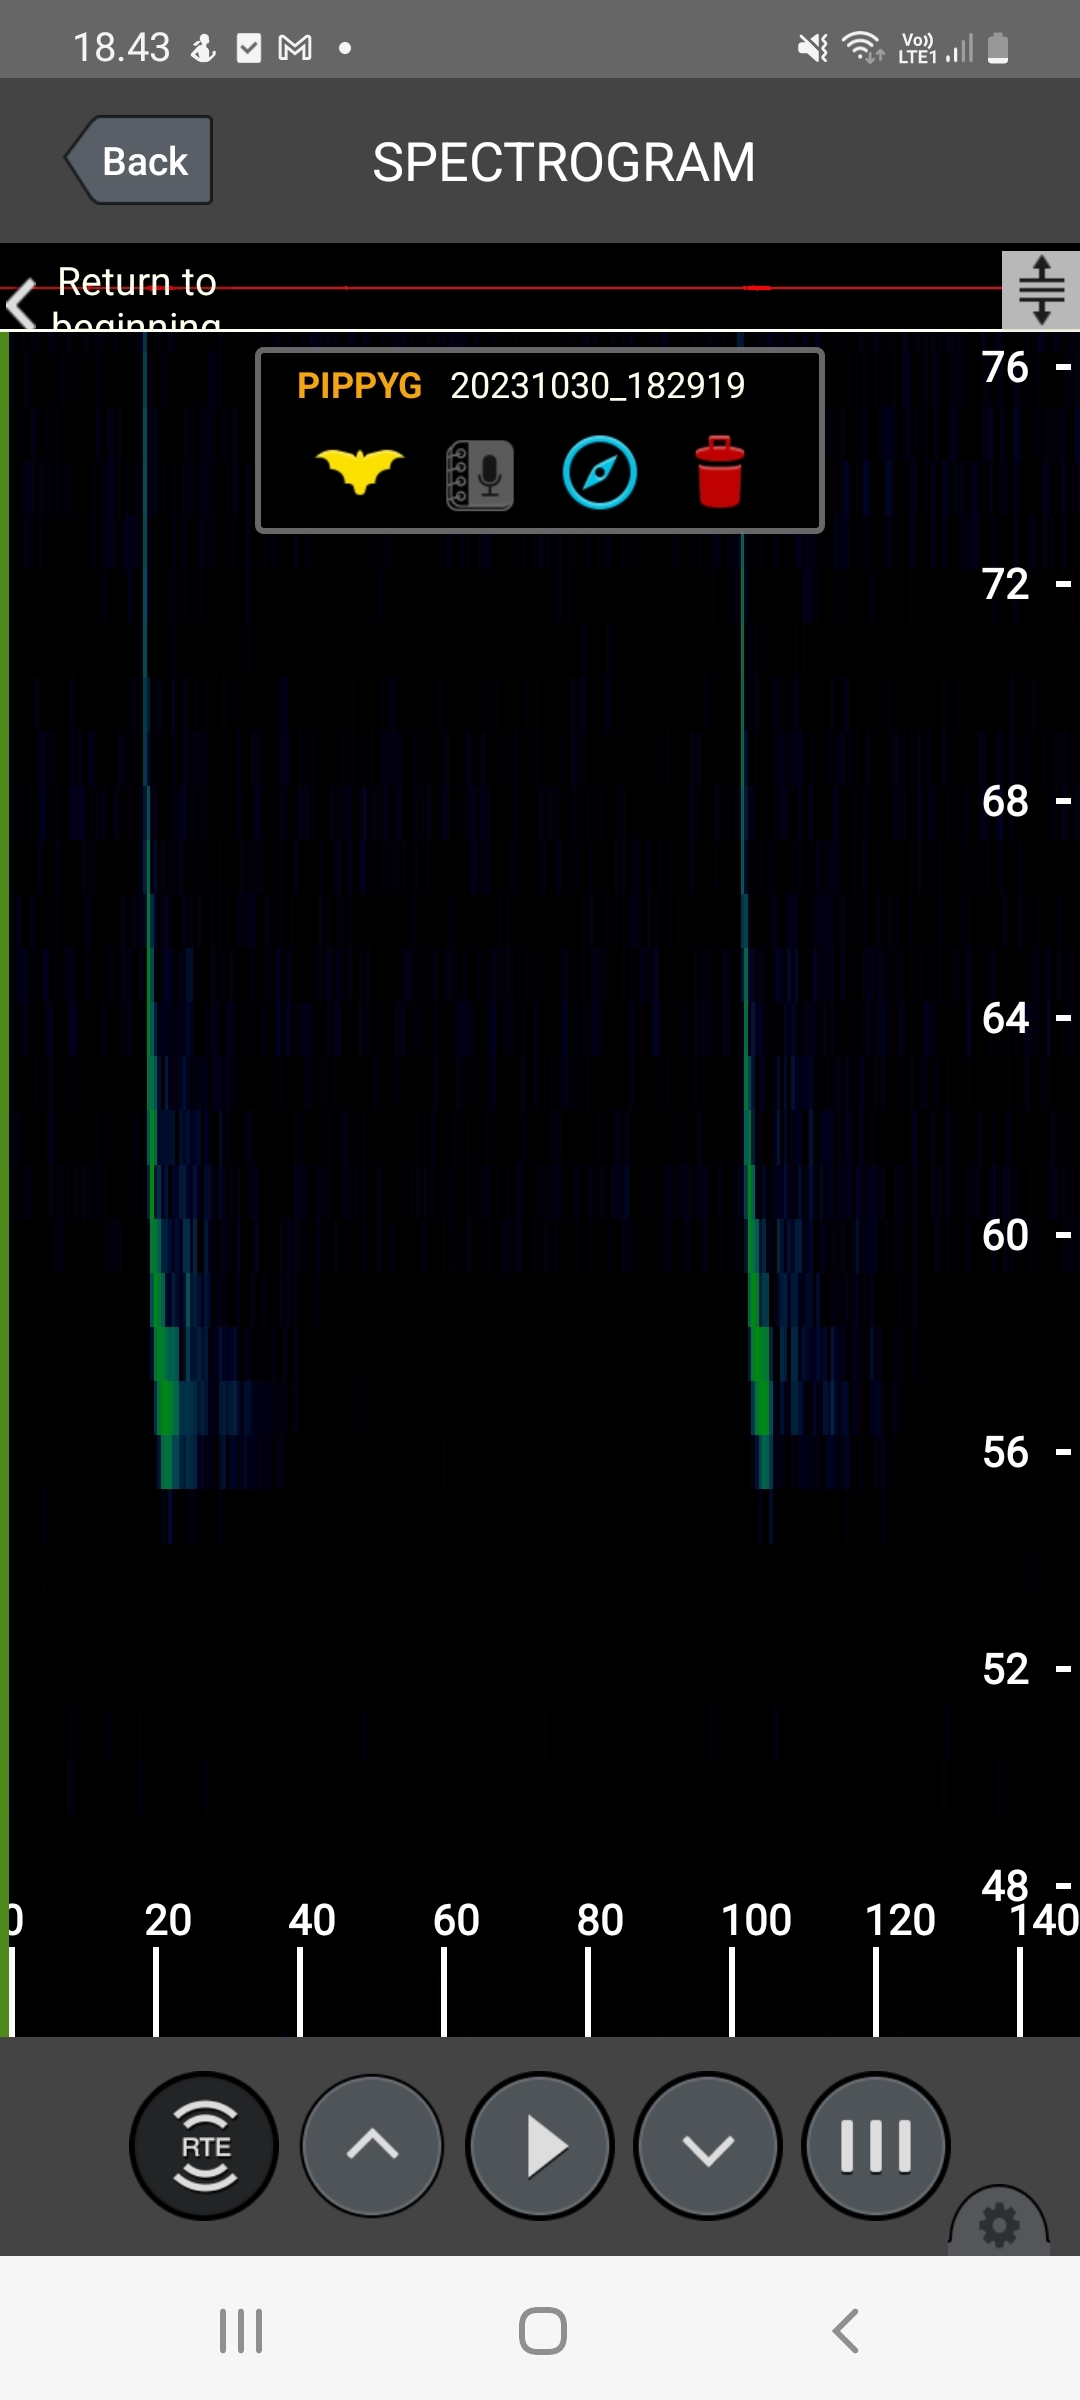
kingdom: Animalia
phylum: Chordata
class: Mammalia
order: Chiroptera
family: Vespertilionidae
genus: Pipistrellus
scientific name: Pipistrellus pygmaeus
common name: Dværgflagermus
